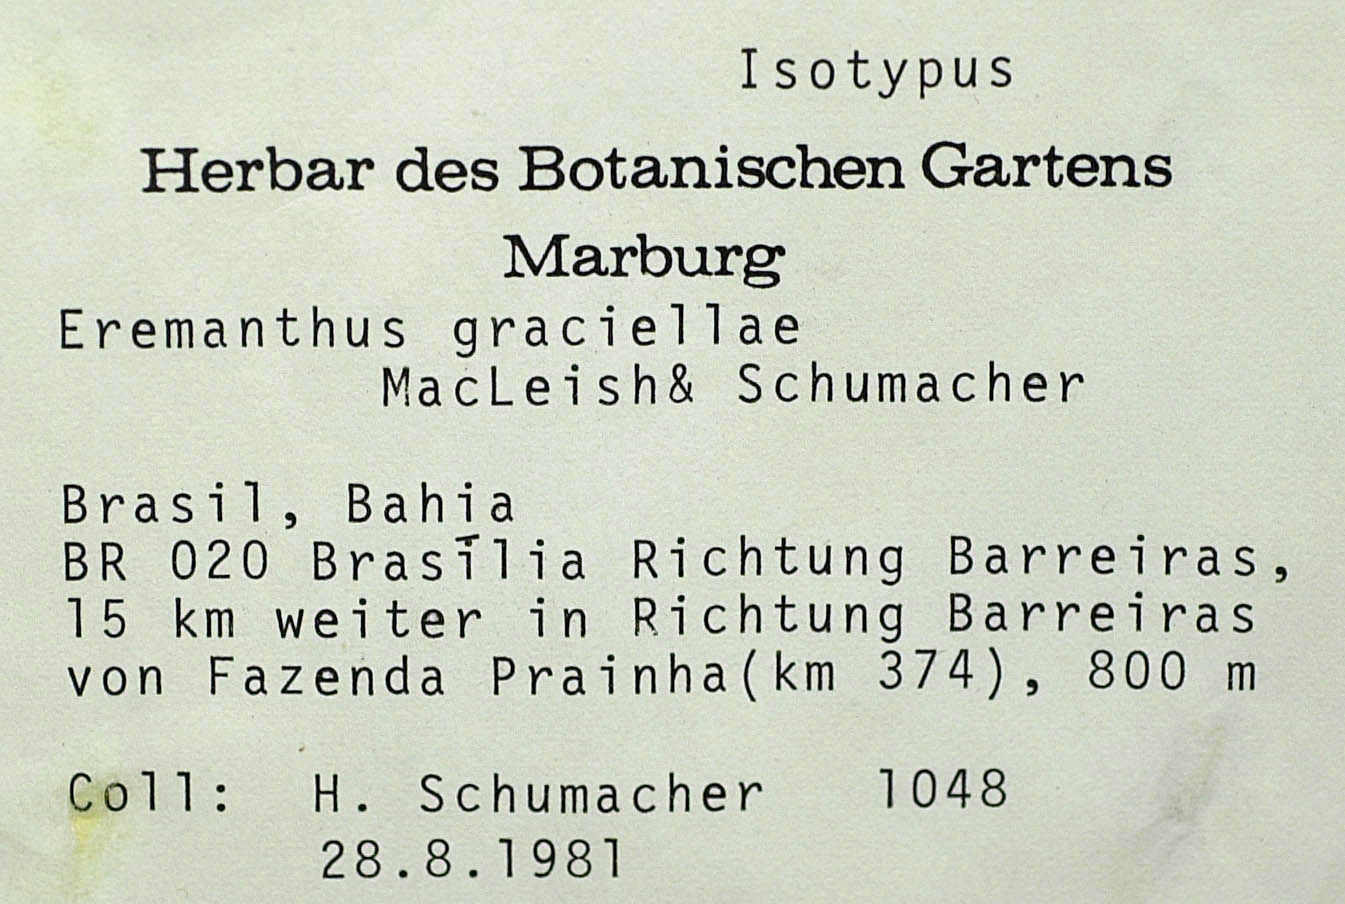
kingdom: Plantae
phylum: Tracheophyta
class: Magnoliopsida
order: Asterales
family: Asteraceae
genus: Eremanthus
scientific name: Eremanthus capitatus
